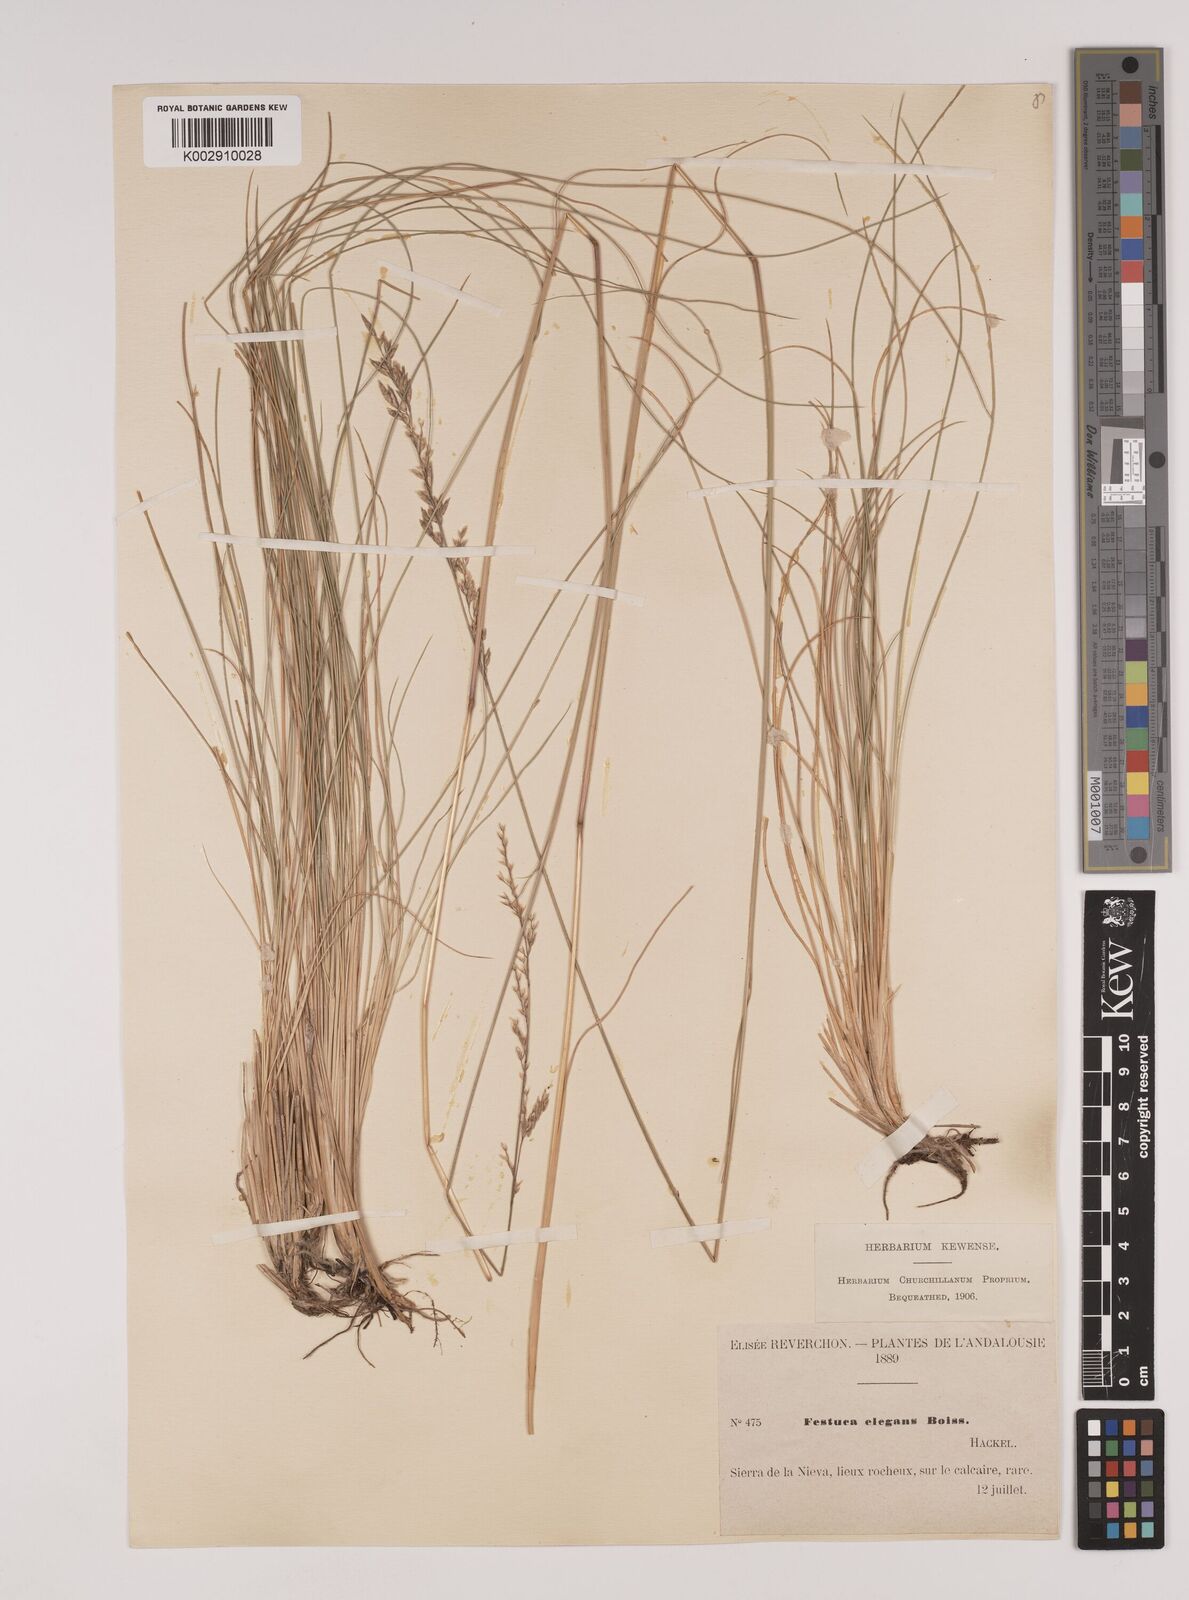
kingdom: Plantae
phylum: Tracheophyta
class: Liliopsida
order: Poales
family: Poaceae
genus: Festuca
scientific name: Festuca elegans
